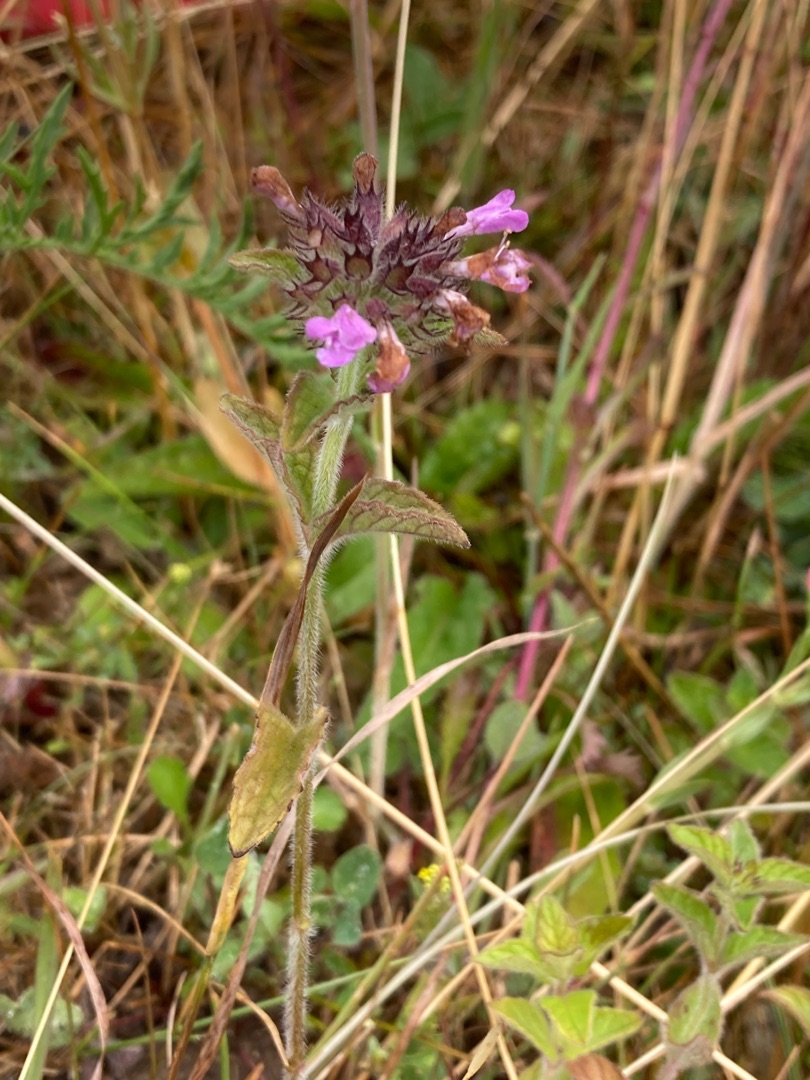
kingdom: Plantae
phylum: Tracheophyta
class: Magnoliopsida
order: Lamiales
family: Lamiaceae
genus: Clinopodium
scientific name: Clinopodium vulgare
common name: Kransbørste
